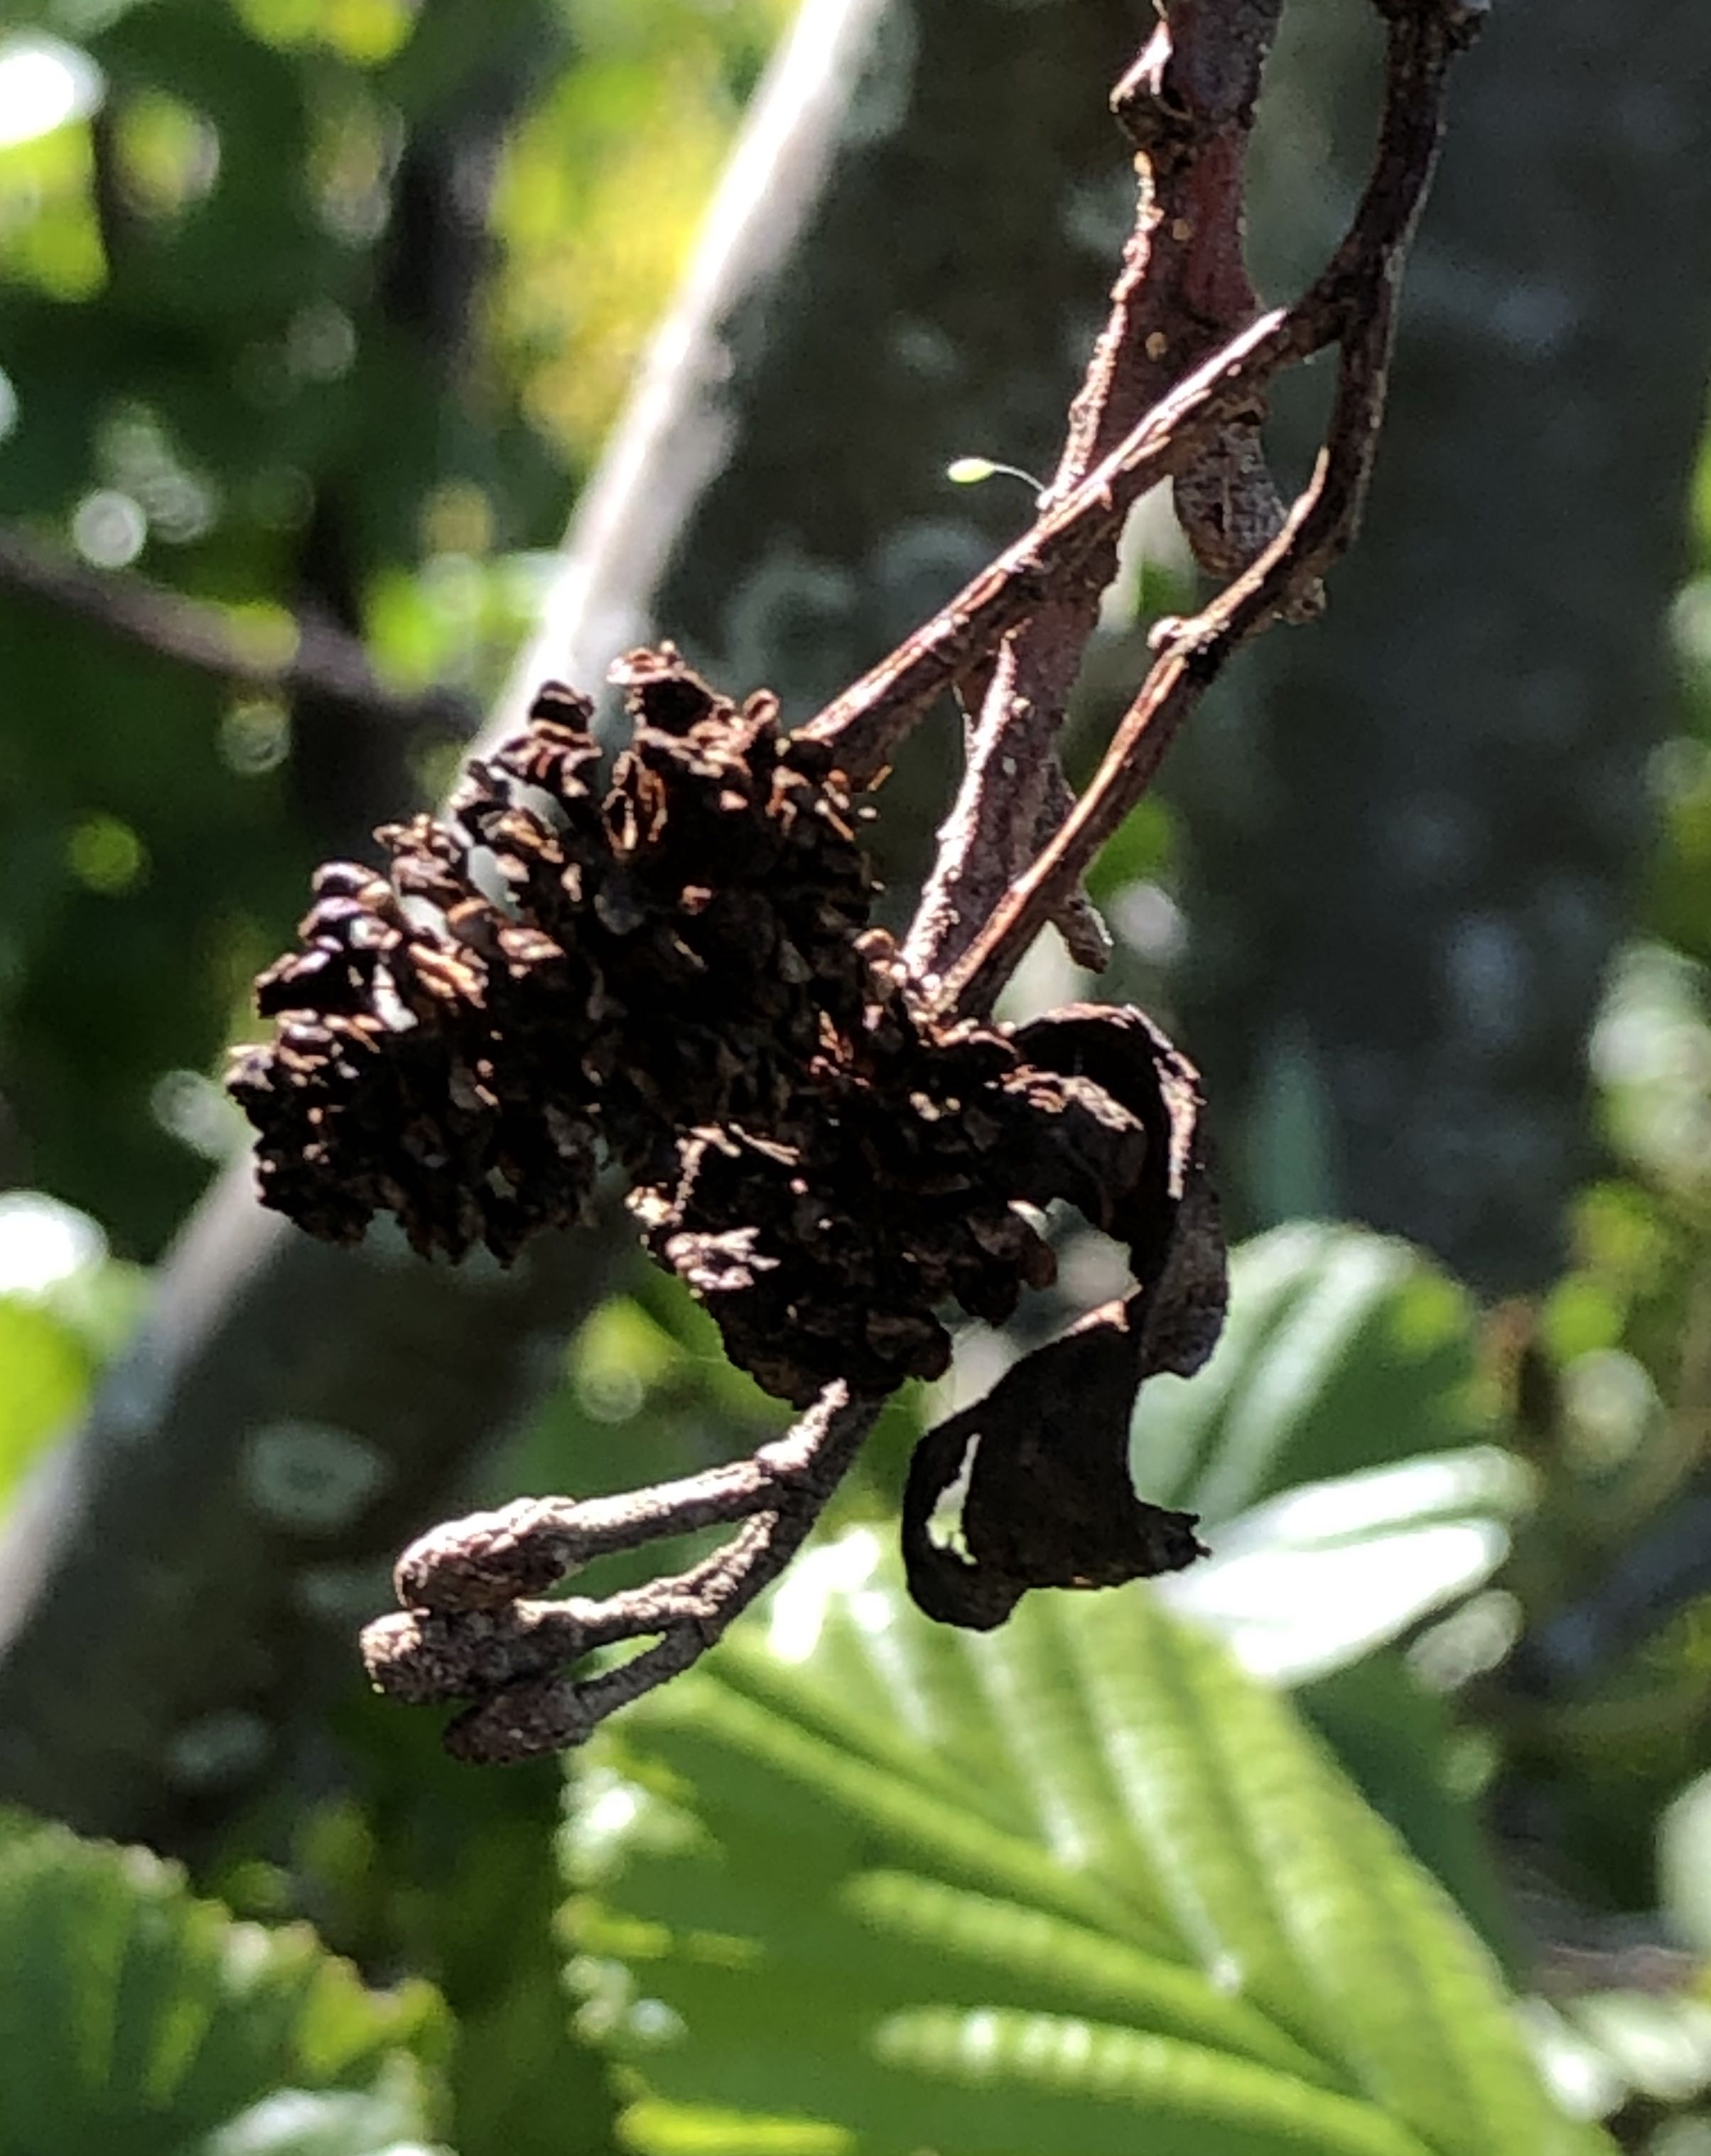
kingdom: Fungi
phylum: Ascomycota
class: Taphrinomycetes
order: Taphrinales
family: Taphrinaceae
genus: Taphrina
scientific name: Taphrina alni
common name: Alder tongue
